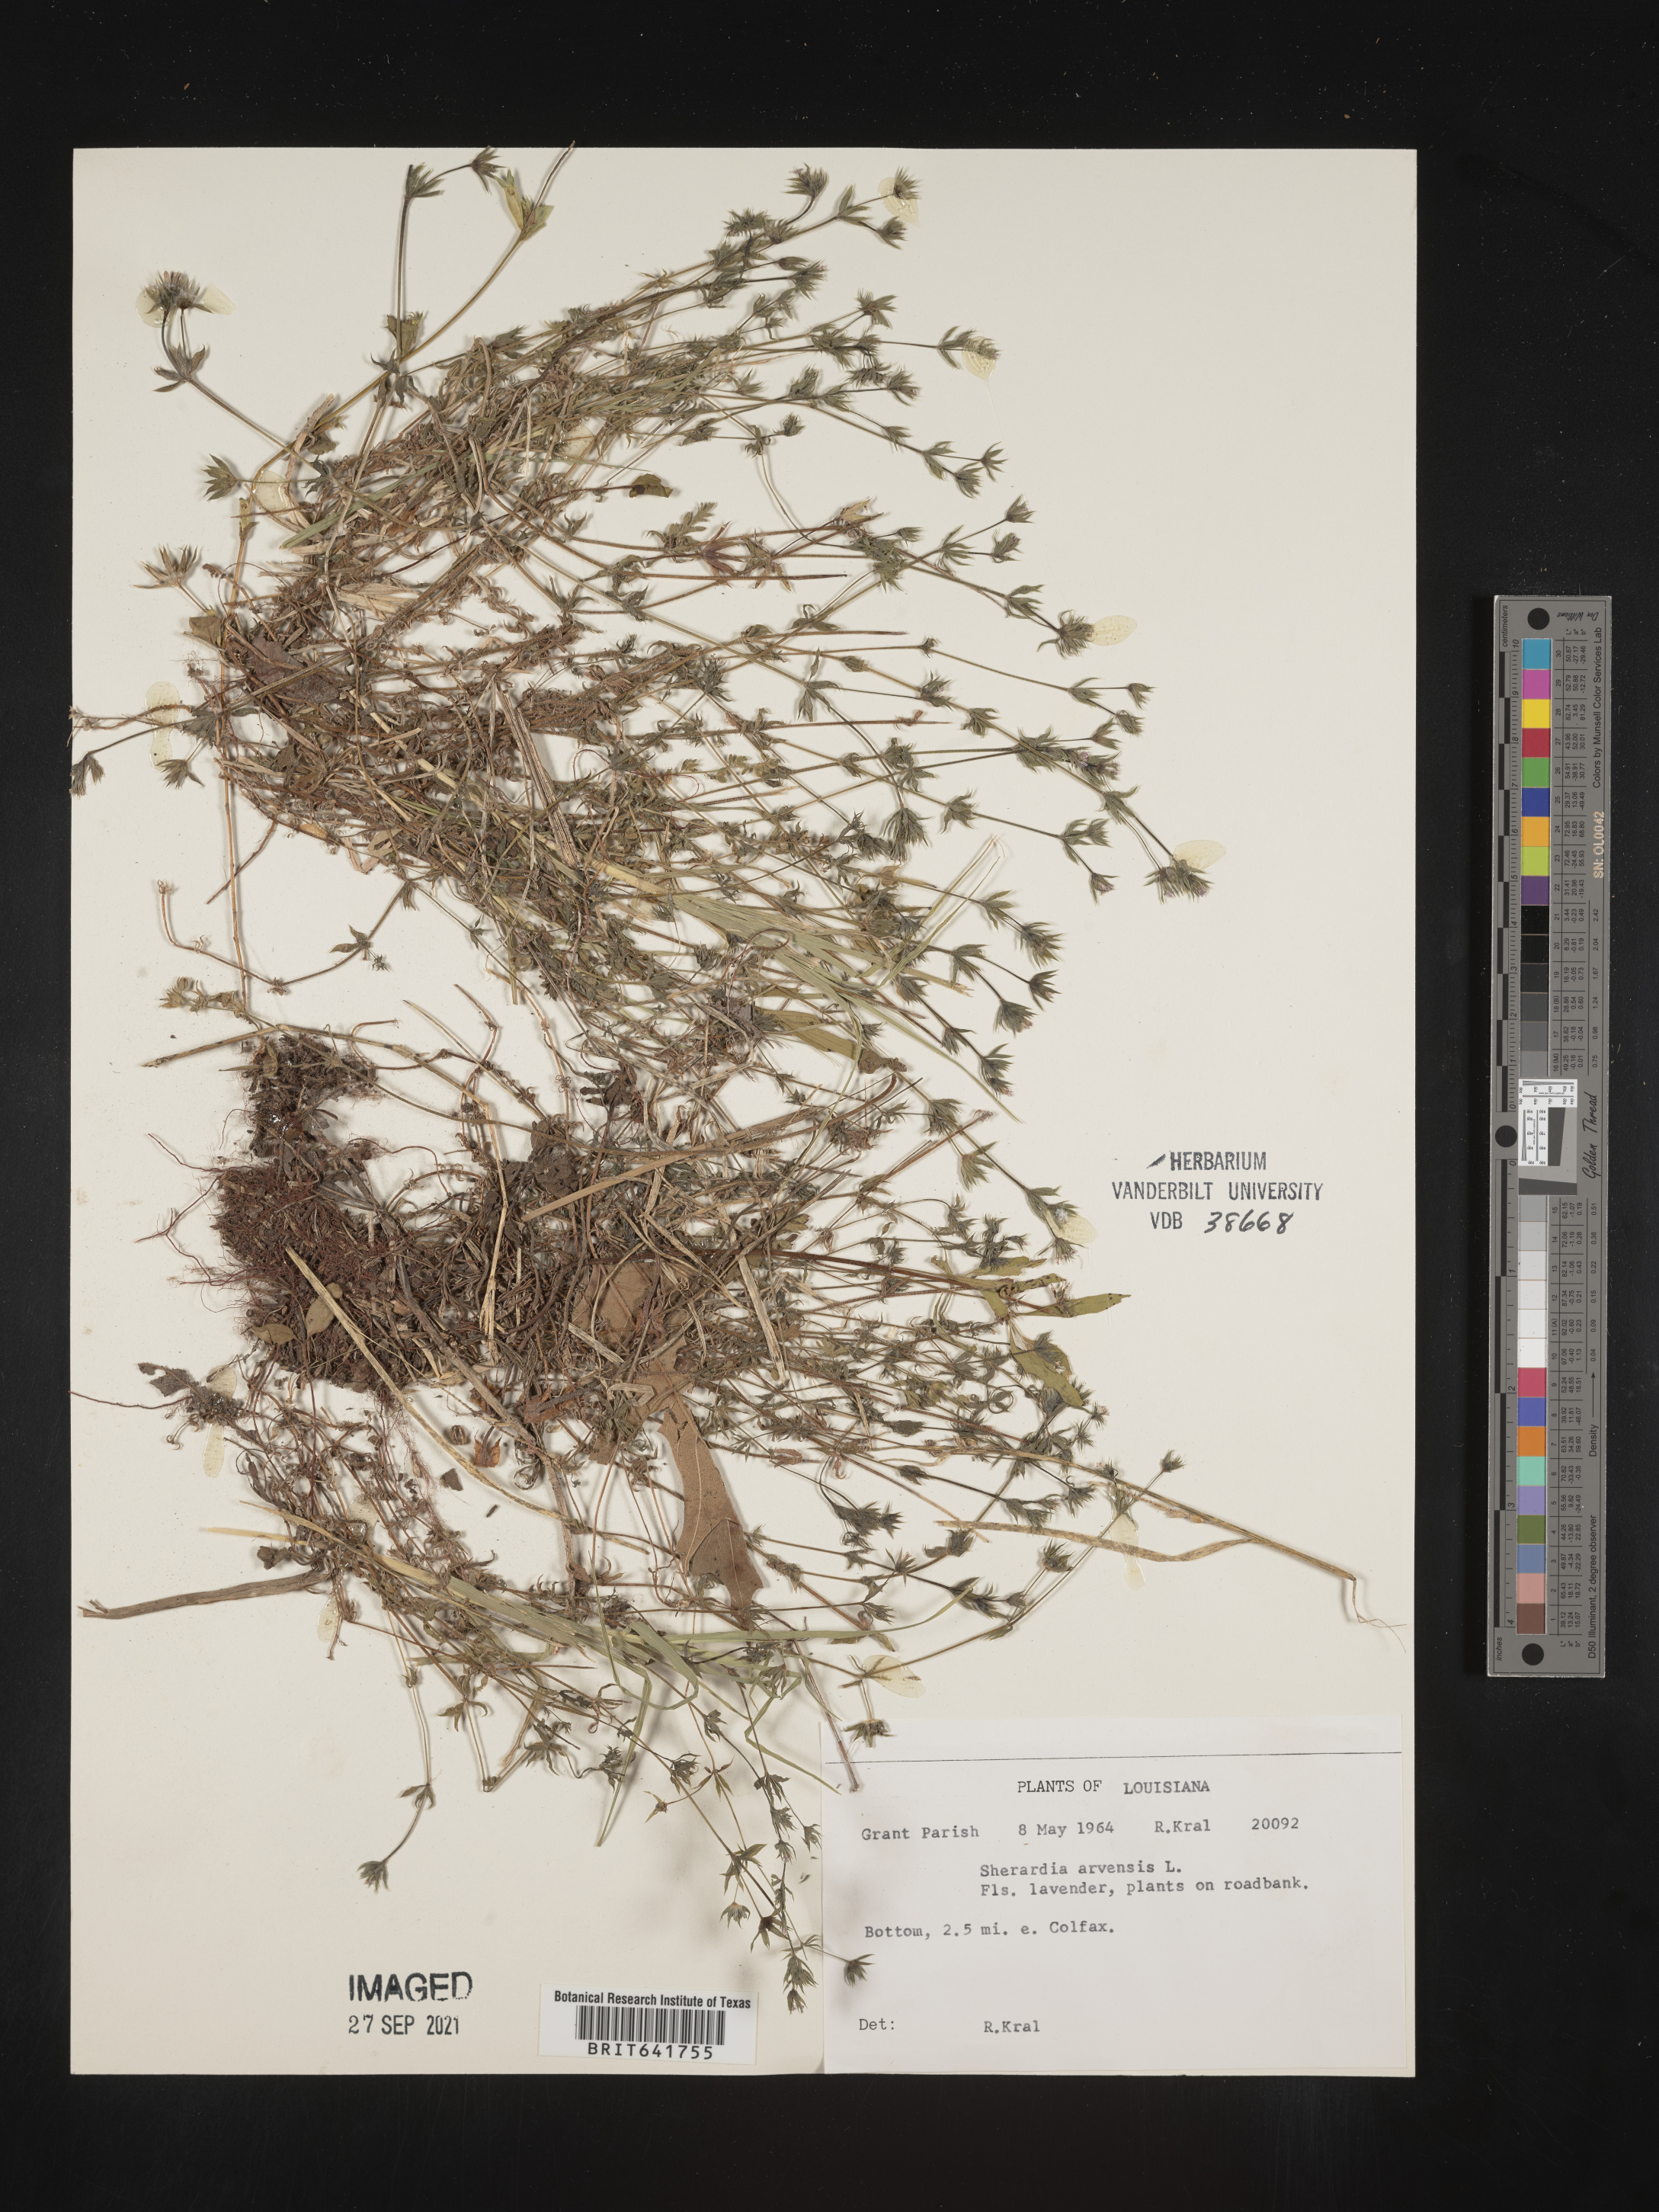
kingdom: Plantae
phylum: Tracheophyta
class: Magnoliopsida
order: Gentianales
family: Rubiaceae
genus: Sherardia
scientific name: Sherardia arvensis
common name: Field madder
